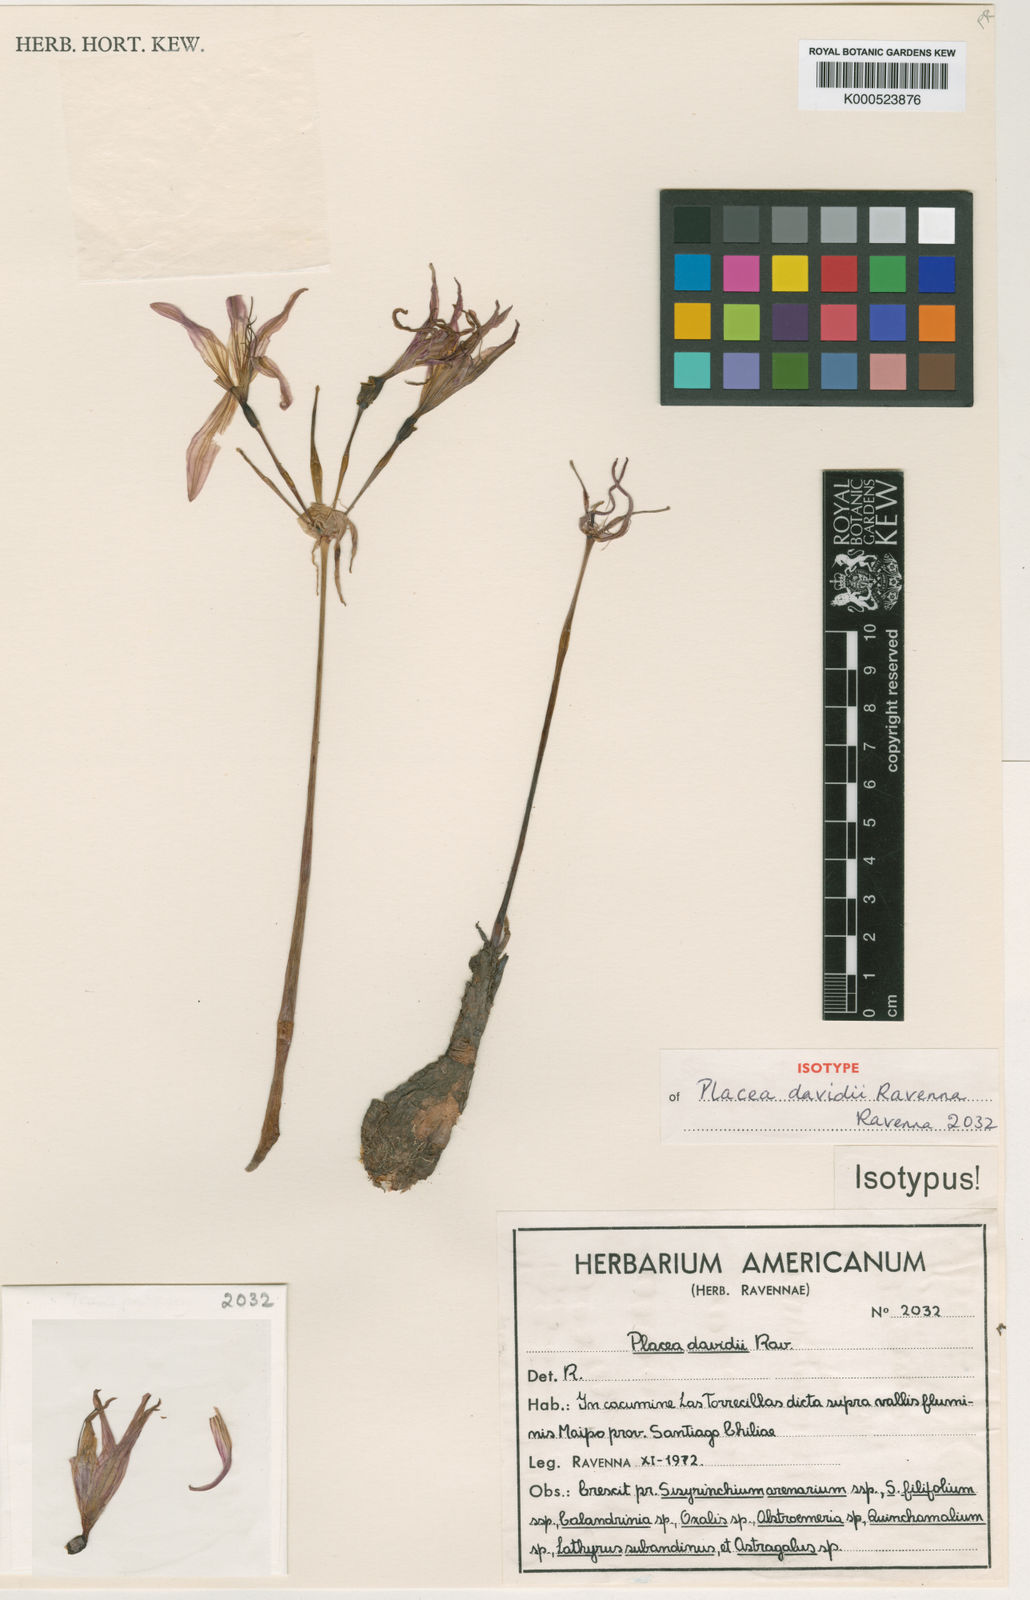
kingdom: Plantae
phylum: Tracheophyta
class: Liliopsida
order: Asparagales
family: Amaryllidaceae
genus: Phycella
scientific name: Phycella davidii
